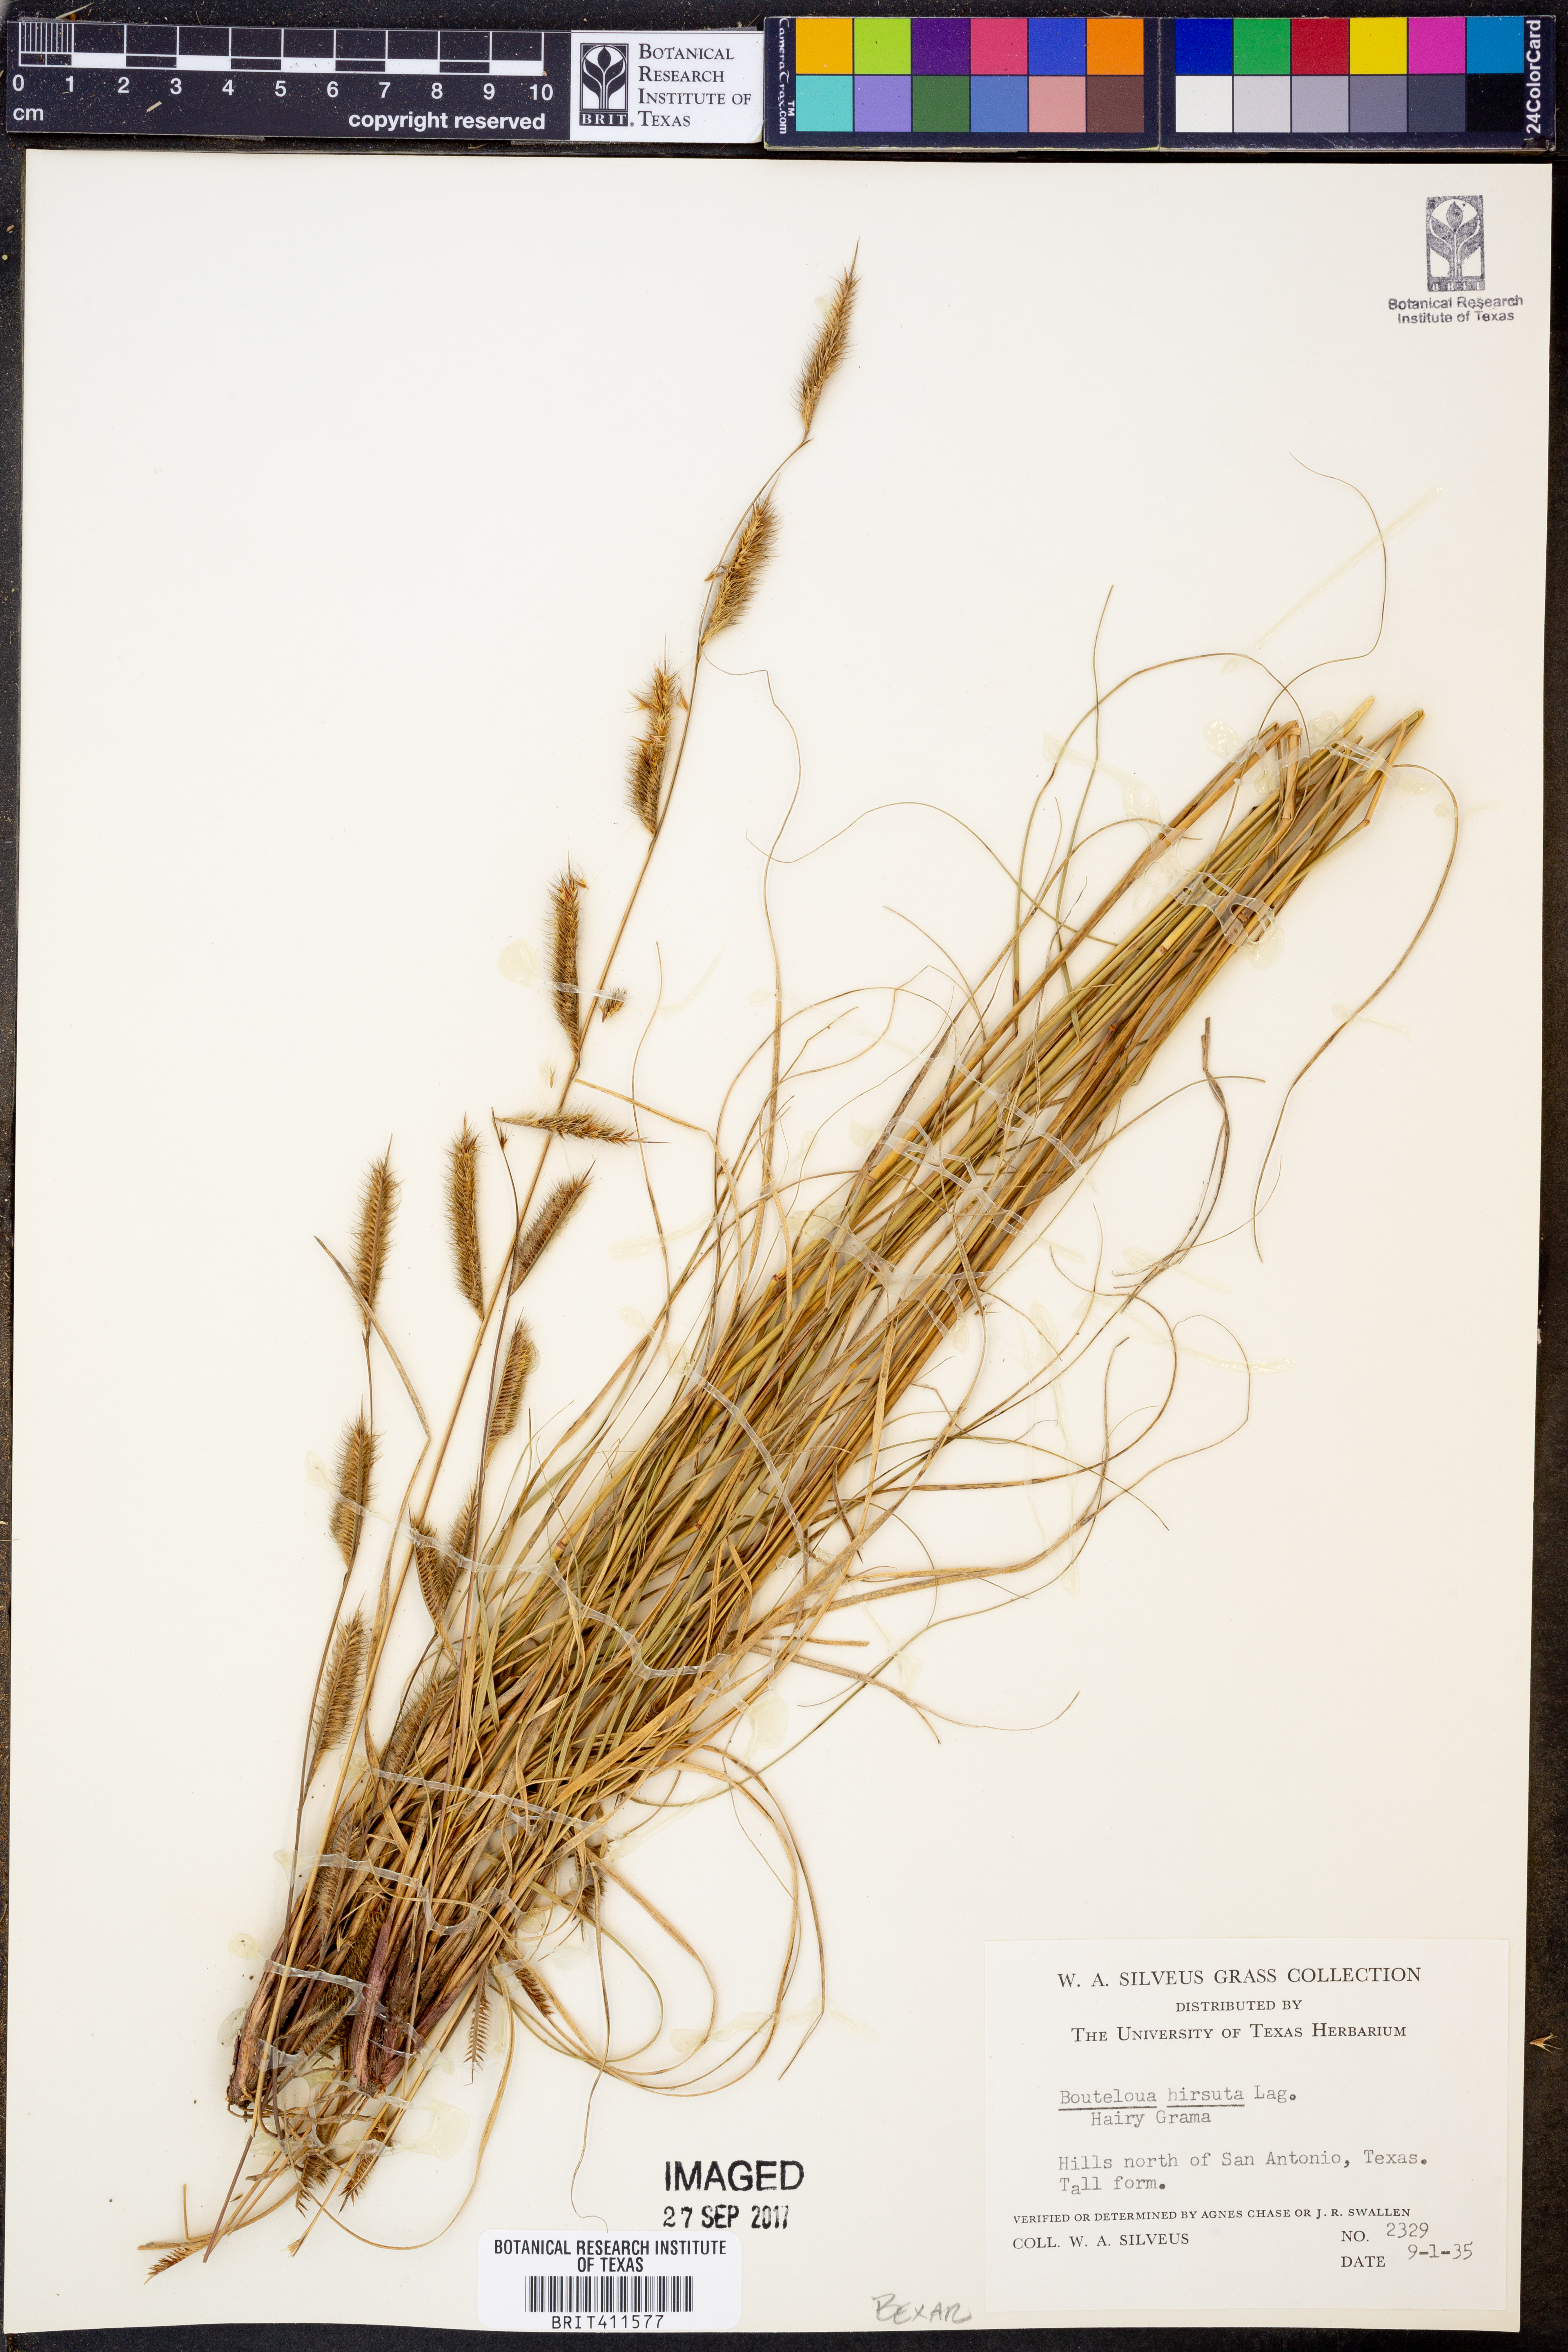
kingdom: Plantae
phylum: Tracheophyta
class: Liliopsida
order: Poales
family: Poaceae
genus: Bouteloua
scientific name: Bouteloua hirsuta
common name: Hairy grama
